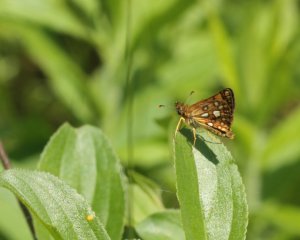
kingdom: Animalia
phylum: Arthropoda
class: Insecta
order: Lepidoptera
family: Hesperiidae
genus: Carterocephalus
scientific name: Carterocephalus palaemon
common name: Chequered Skipper
